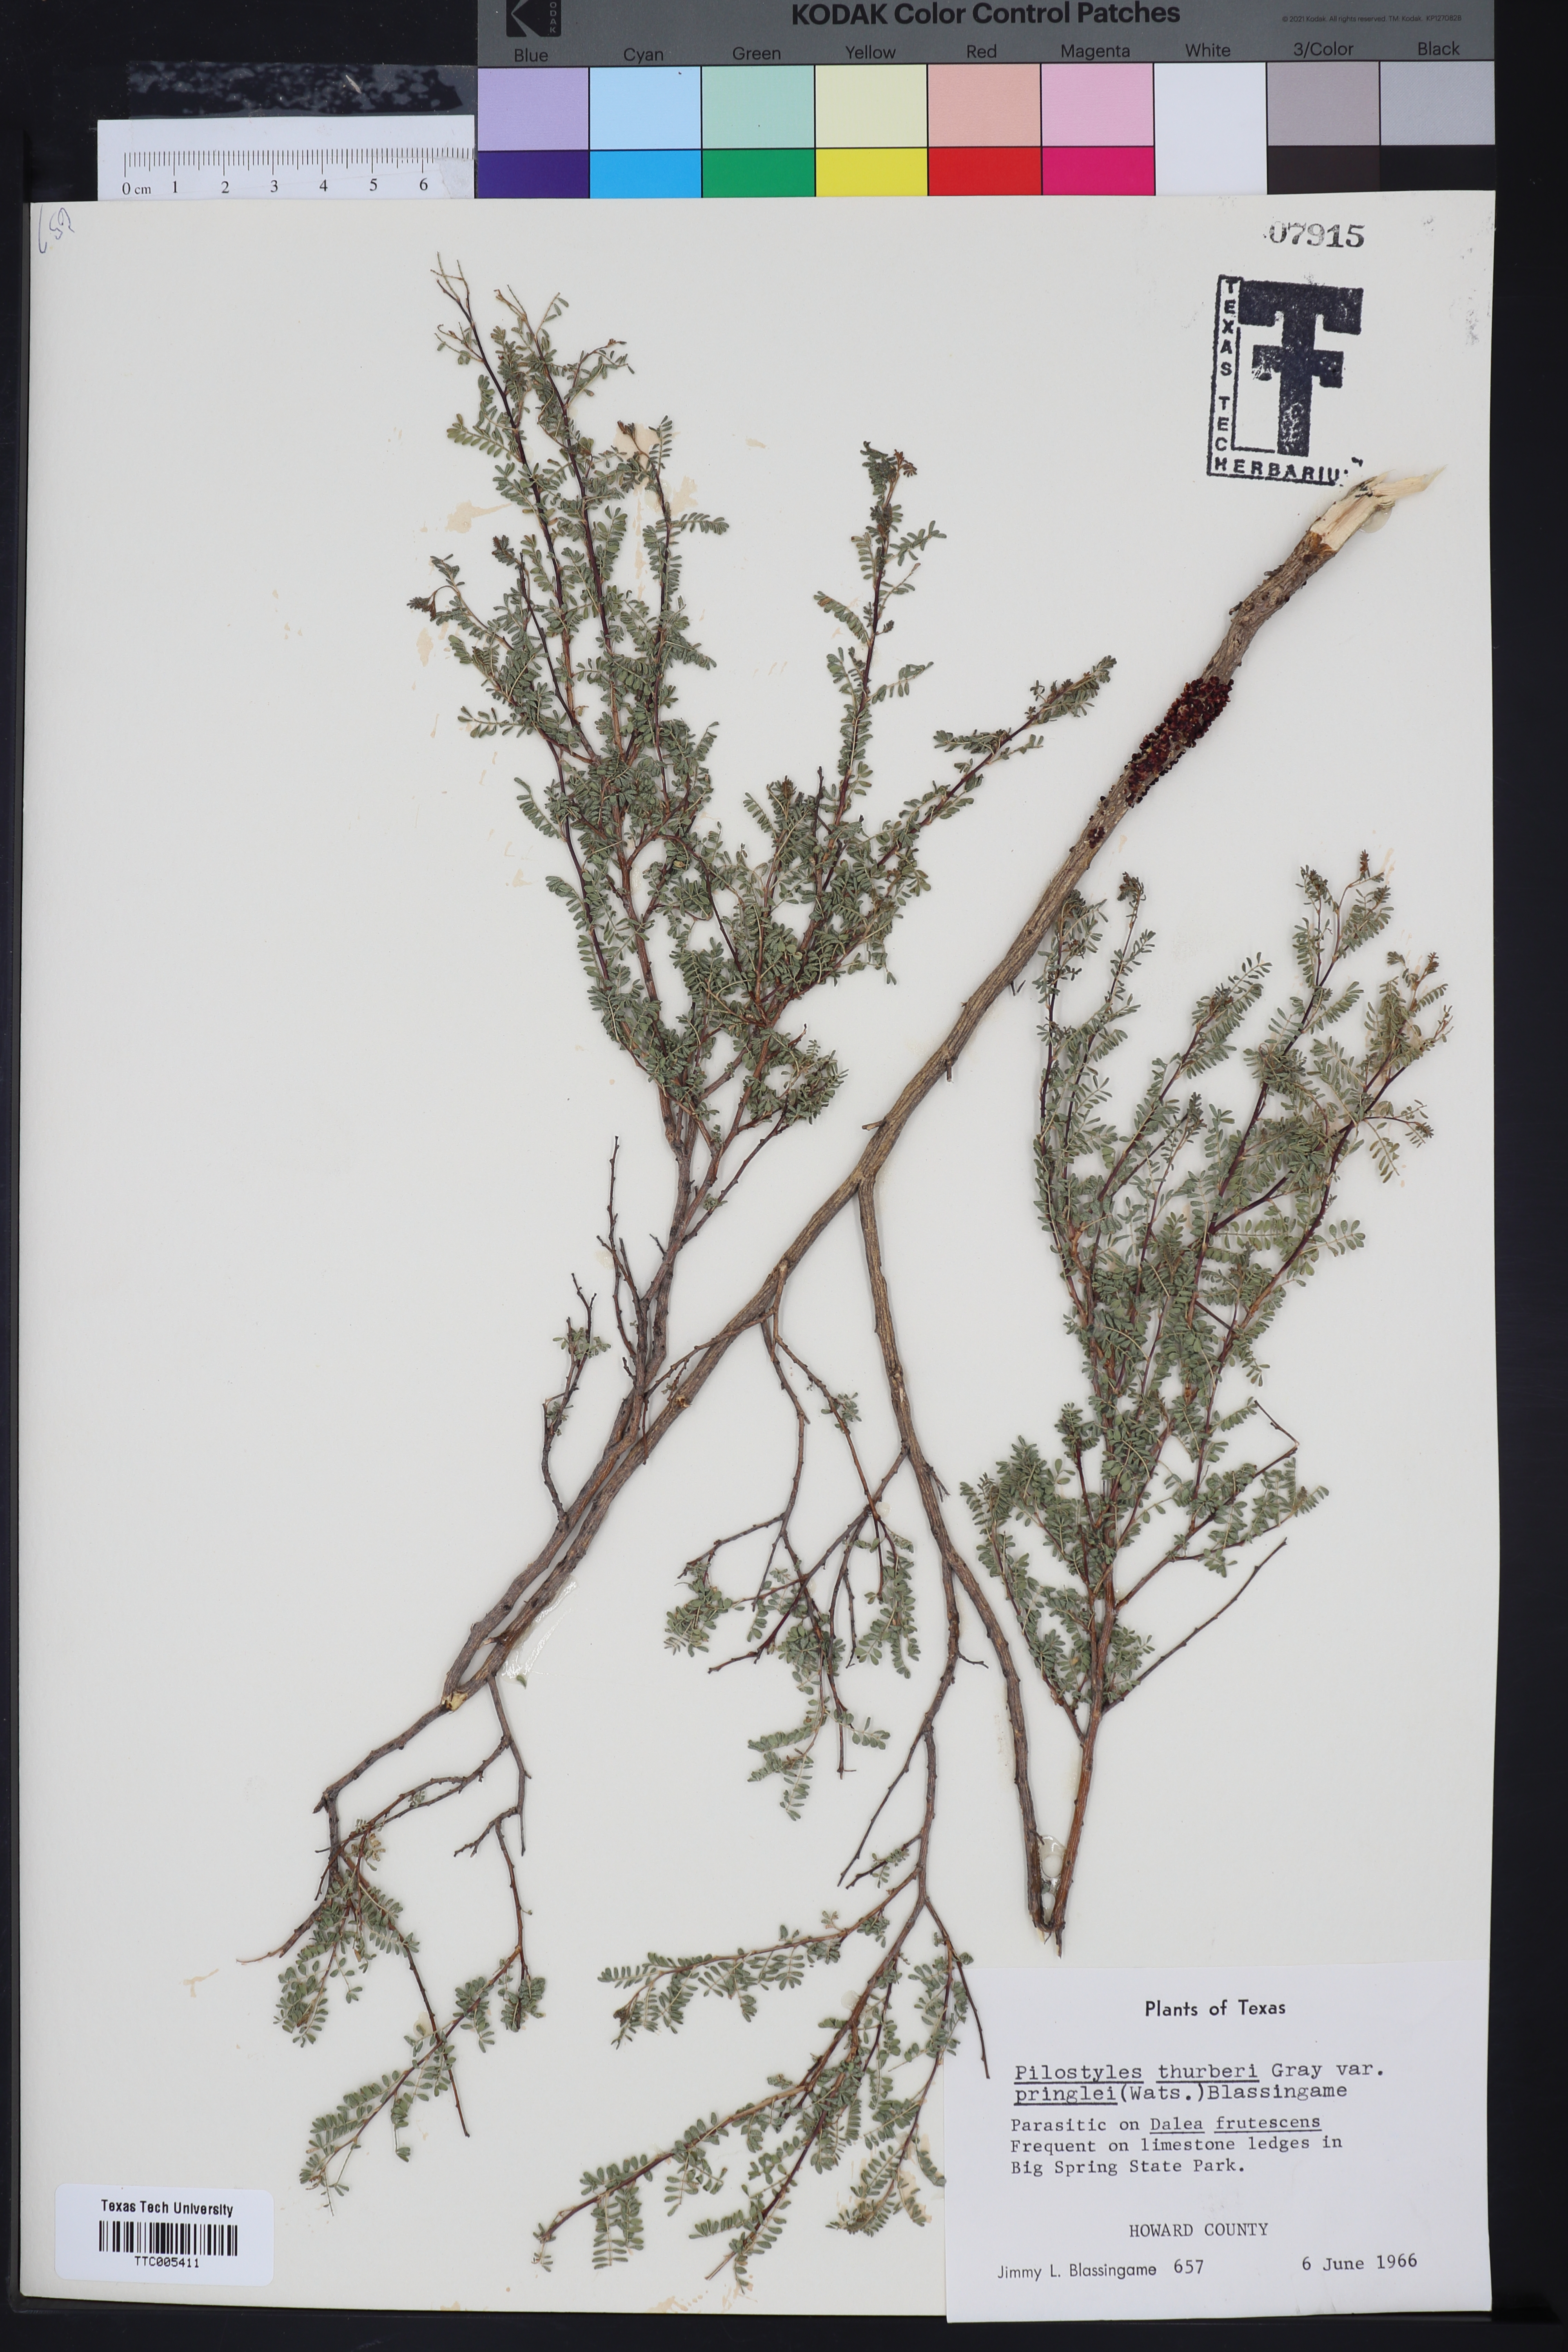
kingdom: Plantae
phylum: Tracheophyta
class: Magnoliopsida
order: Cucurbitales
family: Apodanthaceae
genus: Pilostyles
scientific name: Pilostyles thurberi
